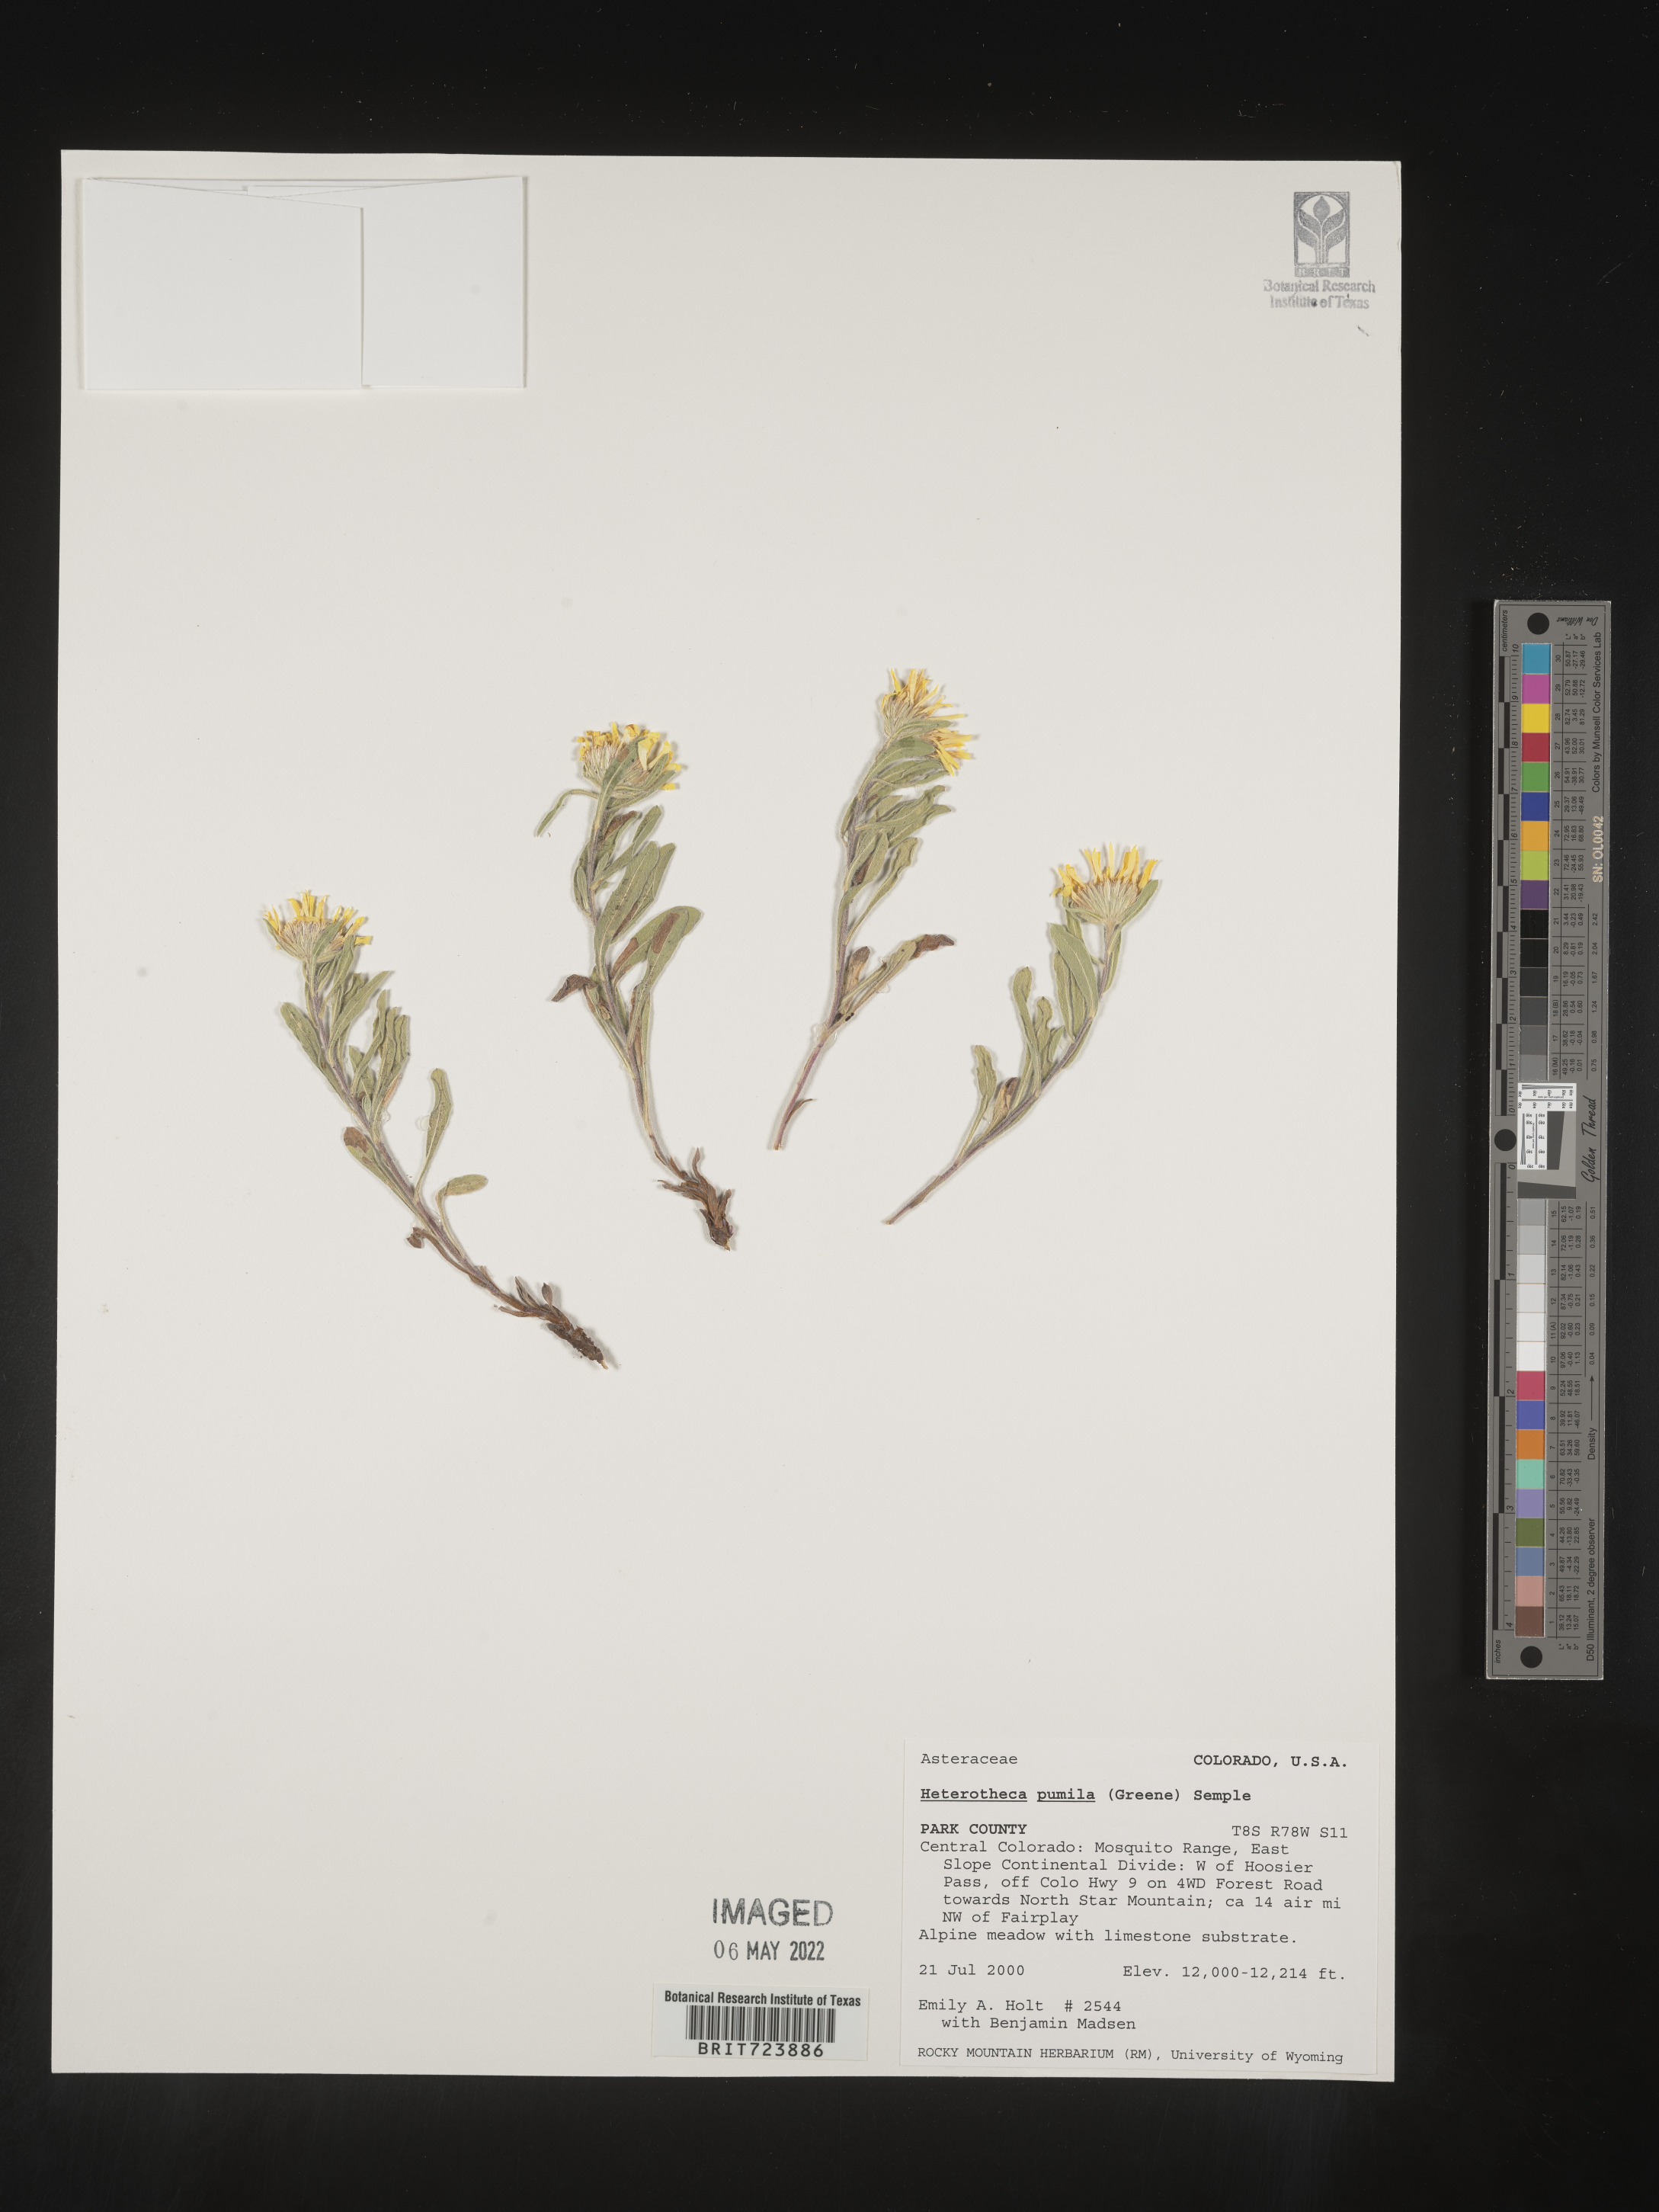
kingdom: Plantae
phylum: Tracheophyta
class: Magnoliopsida
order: Asterales
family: Asteraceae
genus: Heterotheca
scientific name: Heterotheca pumila
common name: Alpine golden-aster
